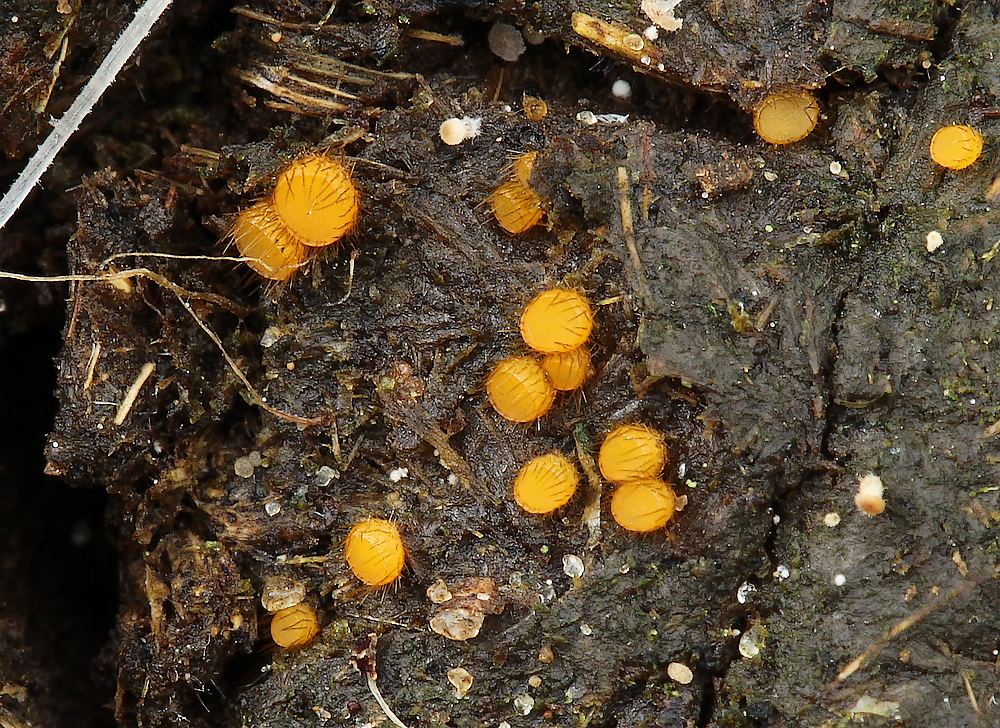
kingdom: Fungi
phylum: Ascomycota
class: Pezizomycetes
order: Pezizales
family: Pyronemataceae
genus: Cheilymenia
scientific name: Cheilymenia stercorea
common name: gødnings-hårbæger
